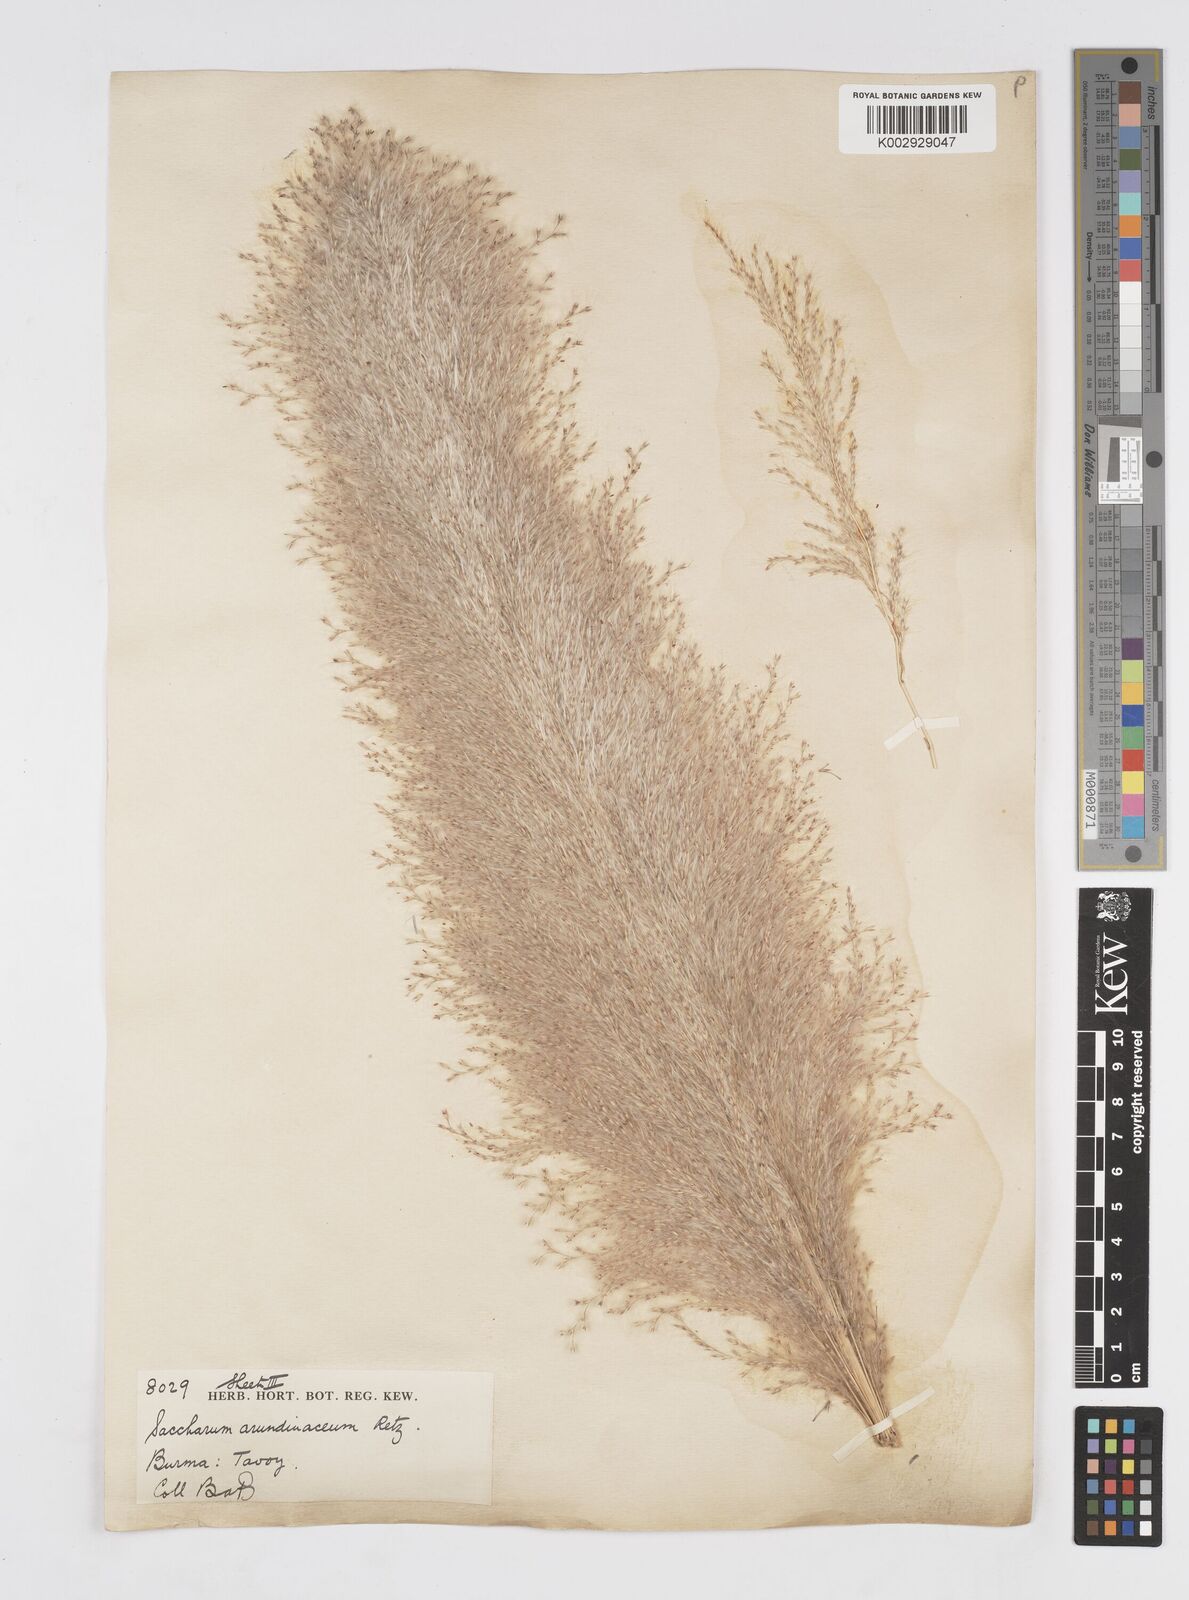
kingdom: Plantae
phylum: Tracheophyta
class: Liliopsida
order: Poales
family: Poaceae
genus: Tripidium
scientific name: Tripidium arundinaceum
